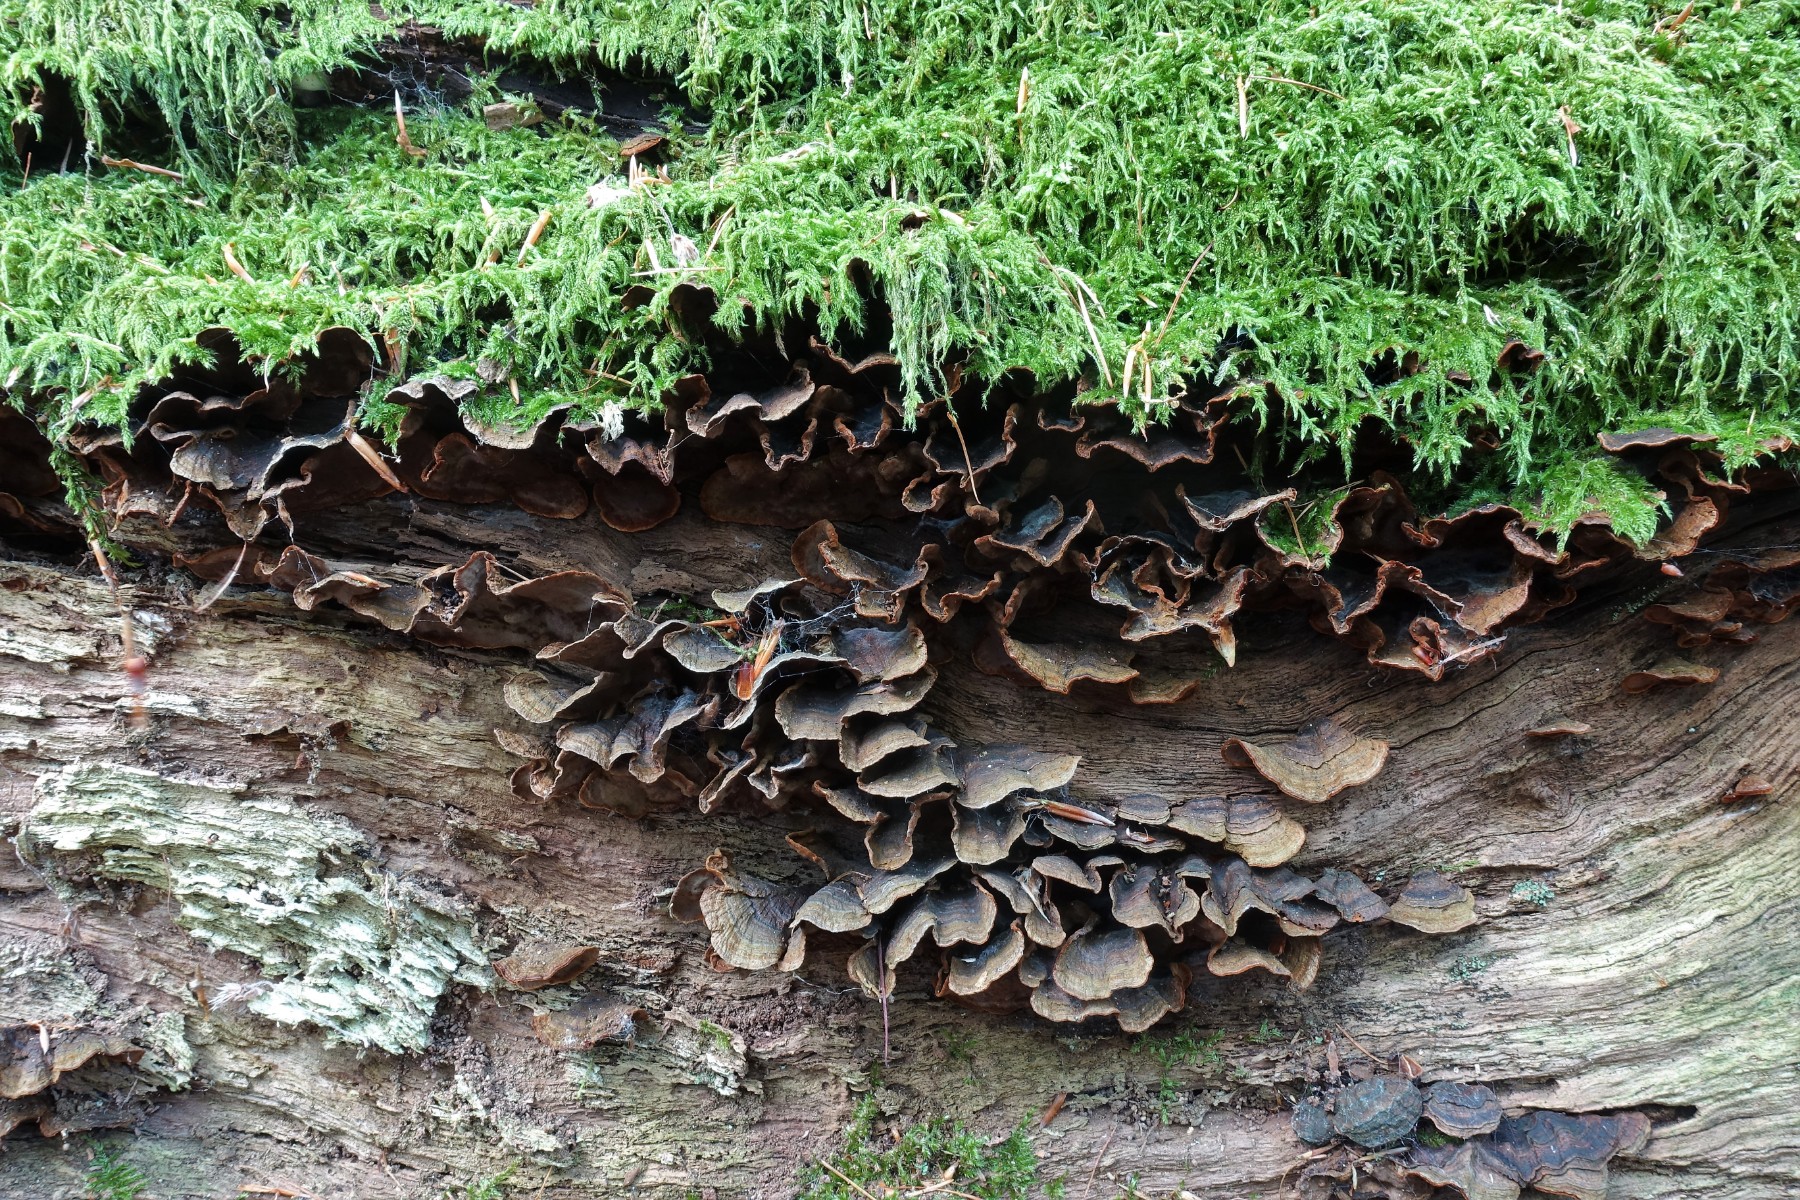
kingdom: Fungi
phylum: Basidiomycota
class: Agaricomycetes
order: Hymenochaetales
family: Hymenochaetaceae
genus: Hymenochaete
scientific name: Hymenochaete rubiginosa
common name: stiv ruslædersvamp
